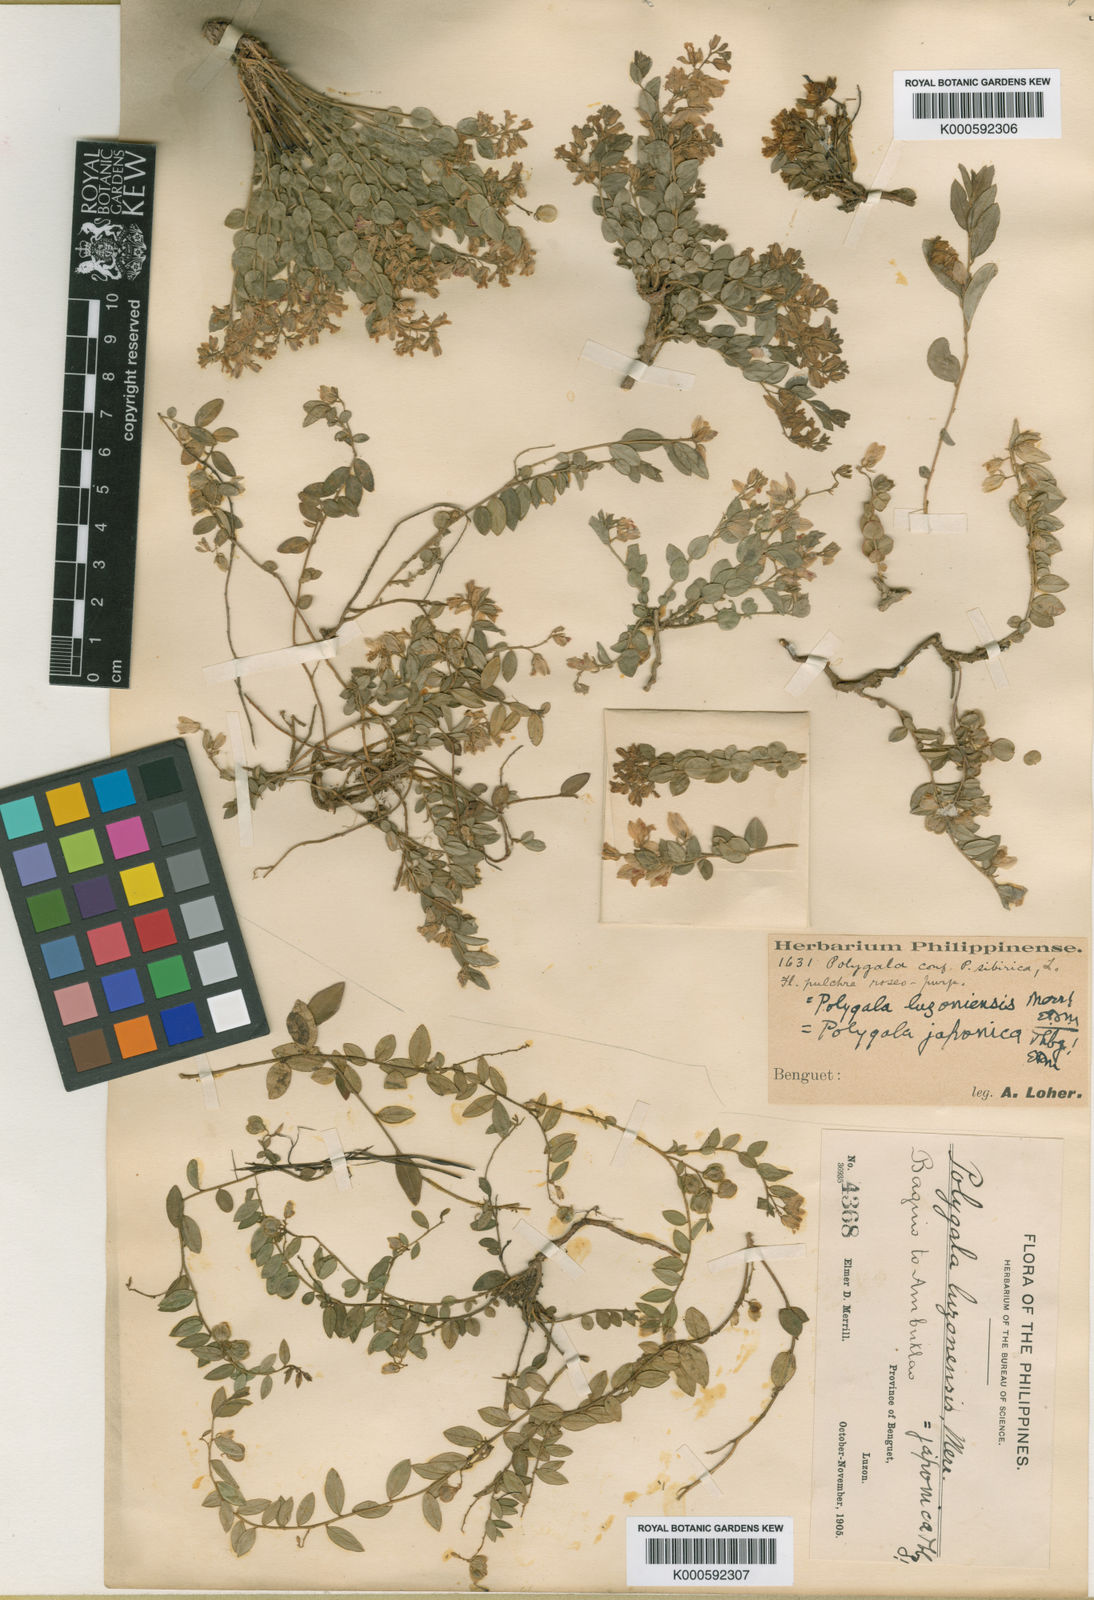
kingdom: Plantae
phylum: Tracheophyta
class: Magnoliopsida
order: Fabales
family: Polygalaceae
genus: Polygala
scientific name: Polygala japonica
